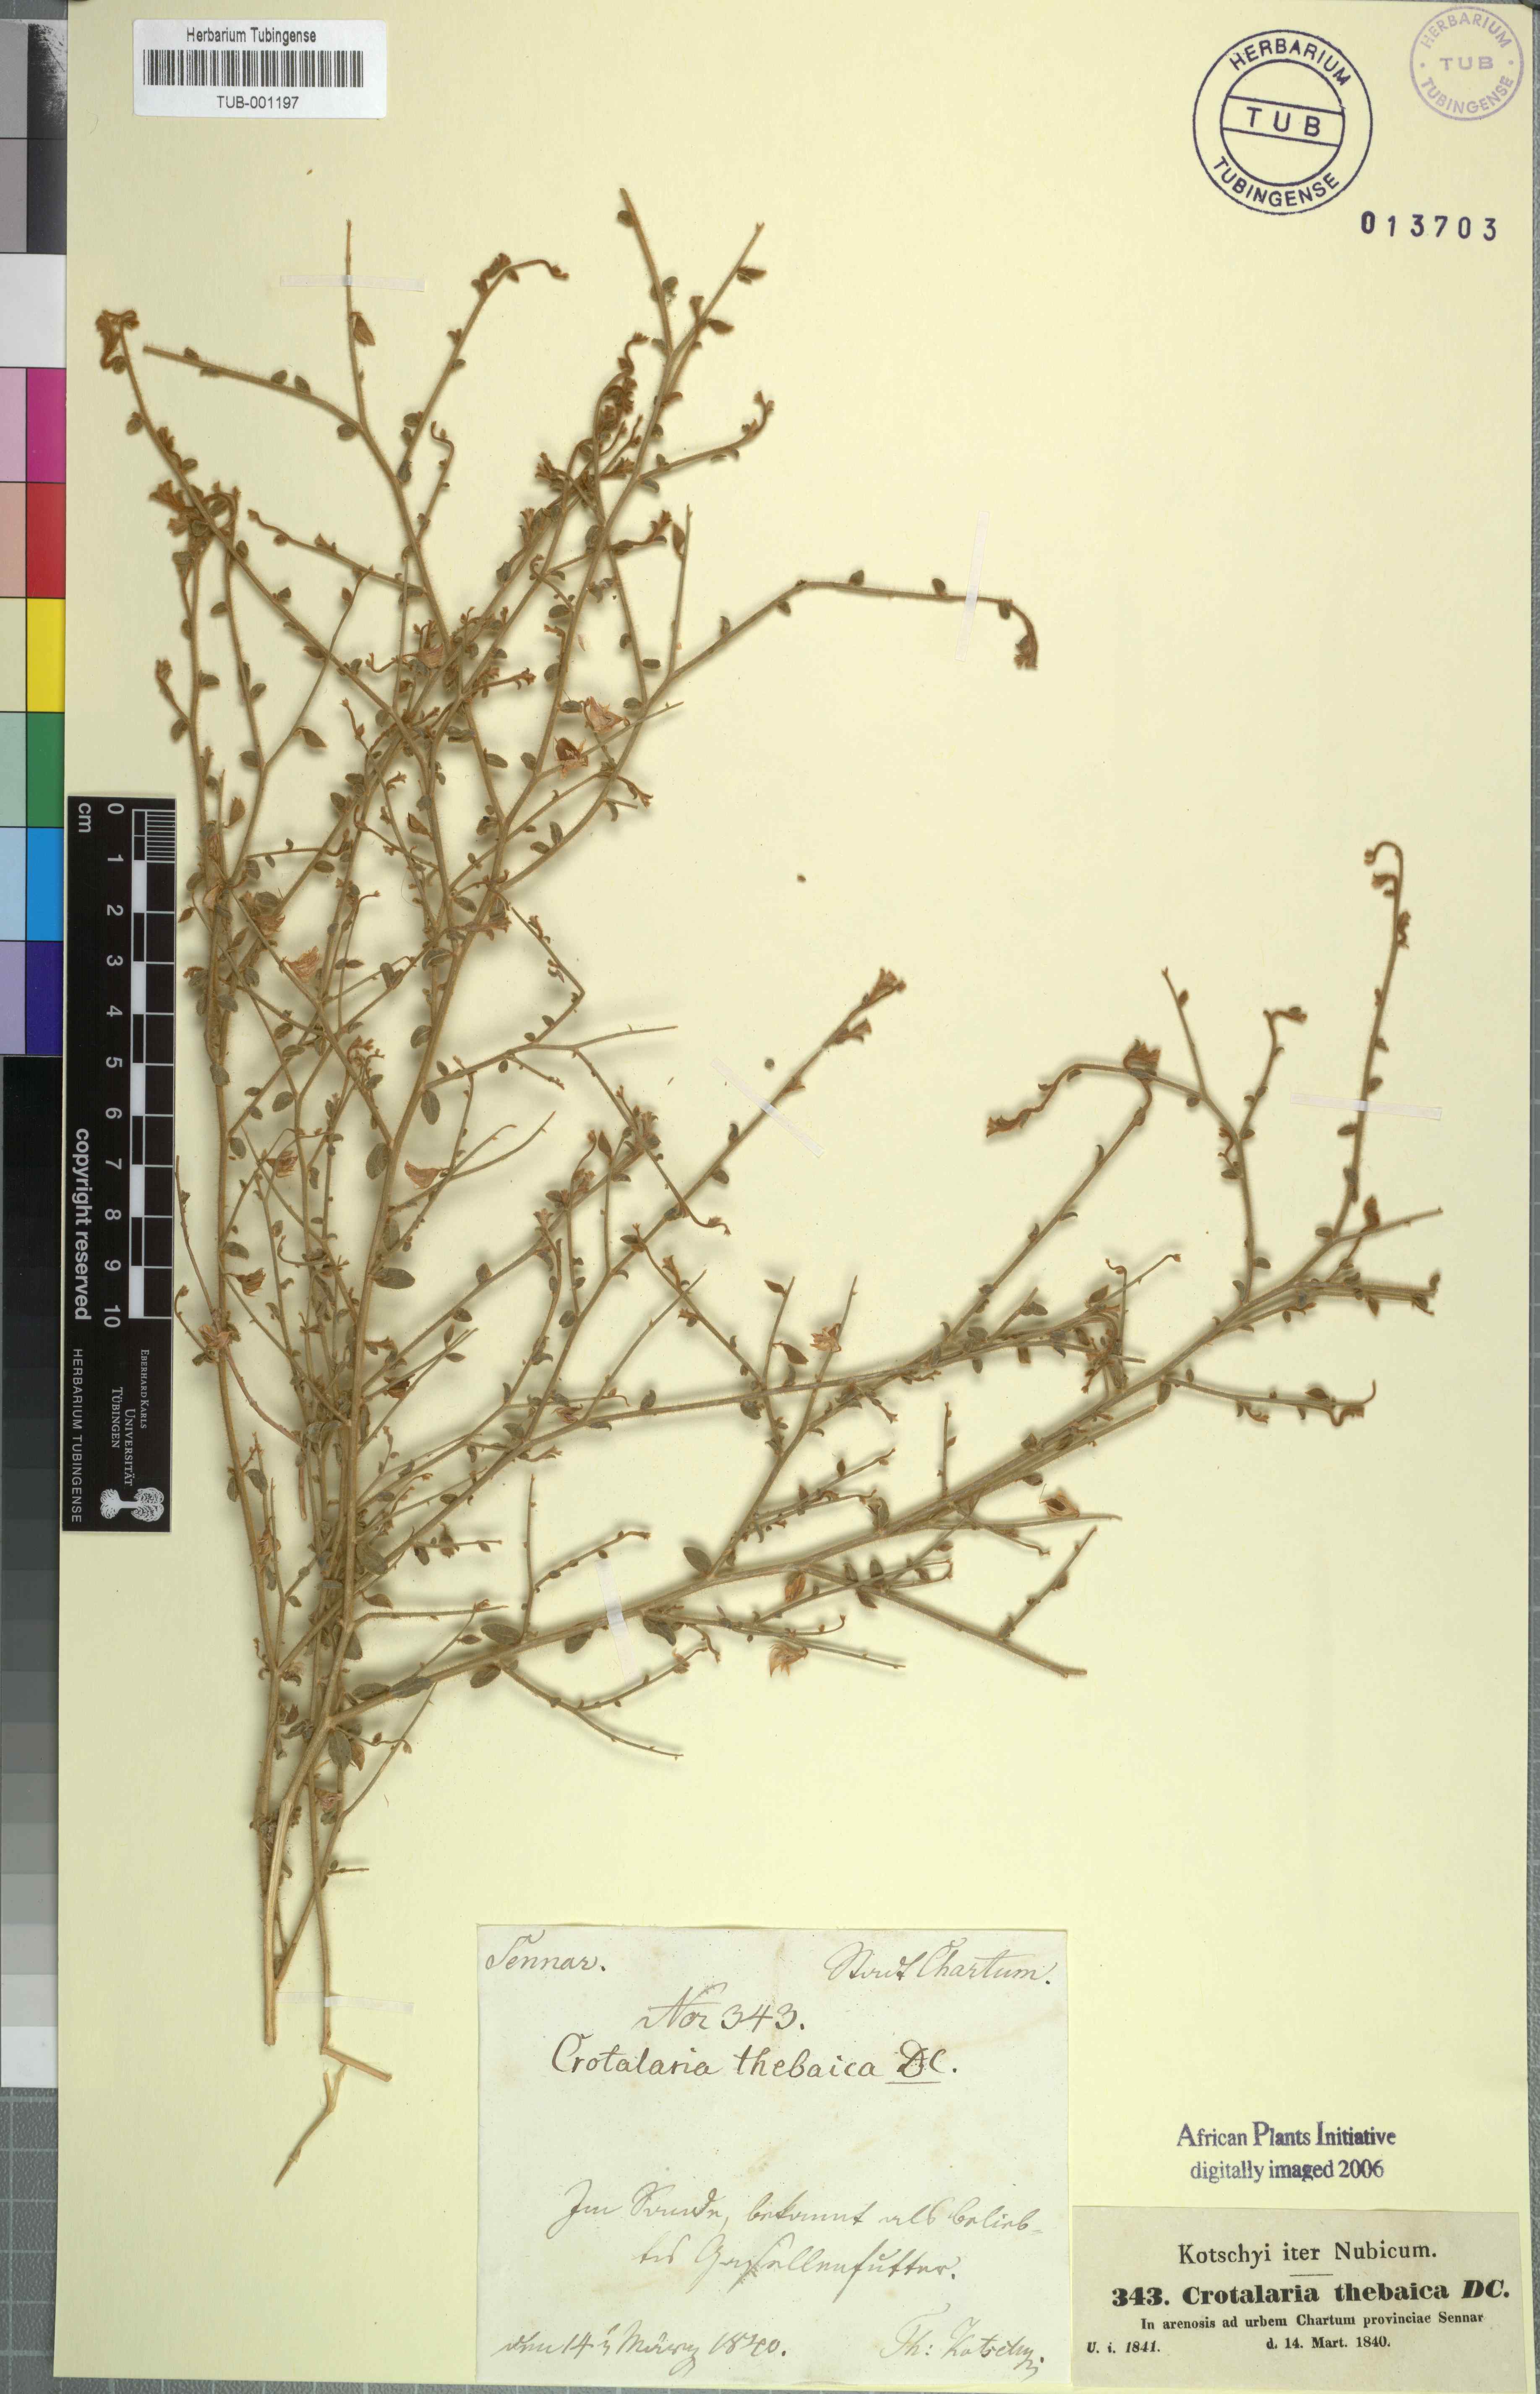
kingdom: Plantae
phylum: Tracheophyta
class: Magnoliopsida
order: Fabales
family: Fabaceae
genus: Crotalaria
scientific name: Crotalaria thebaica
